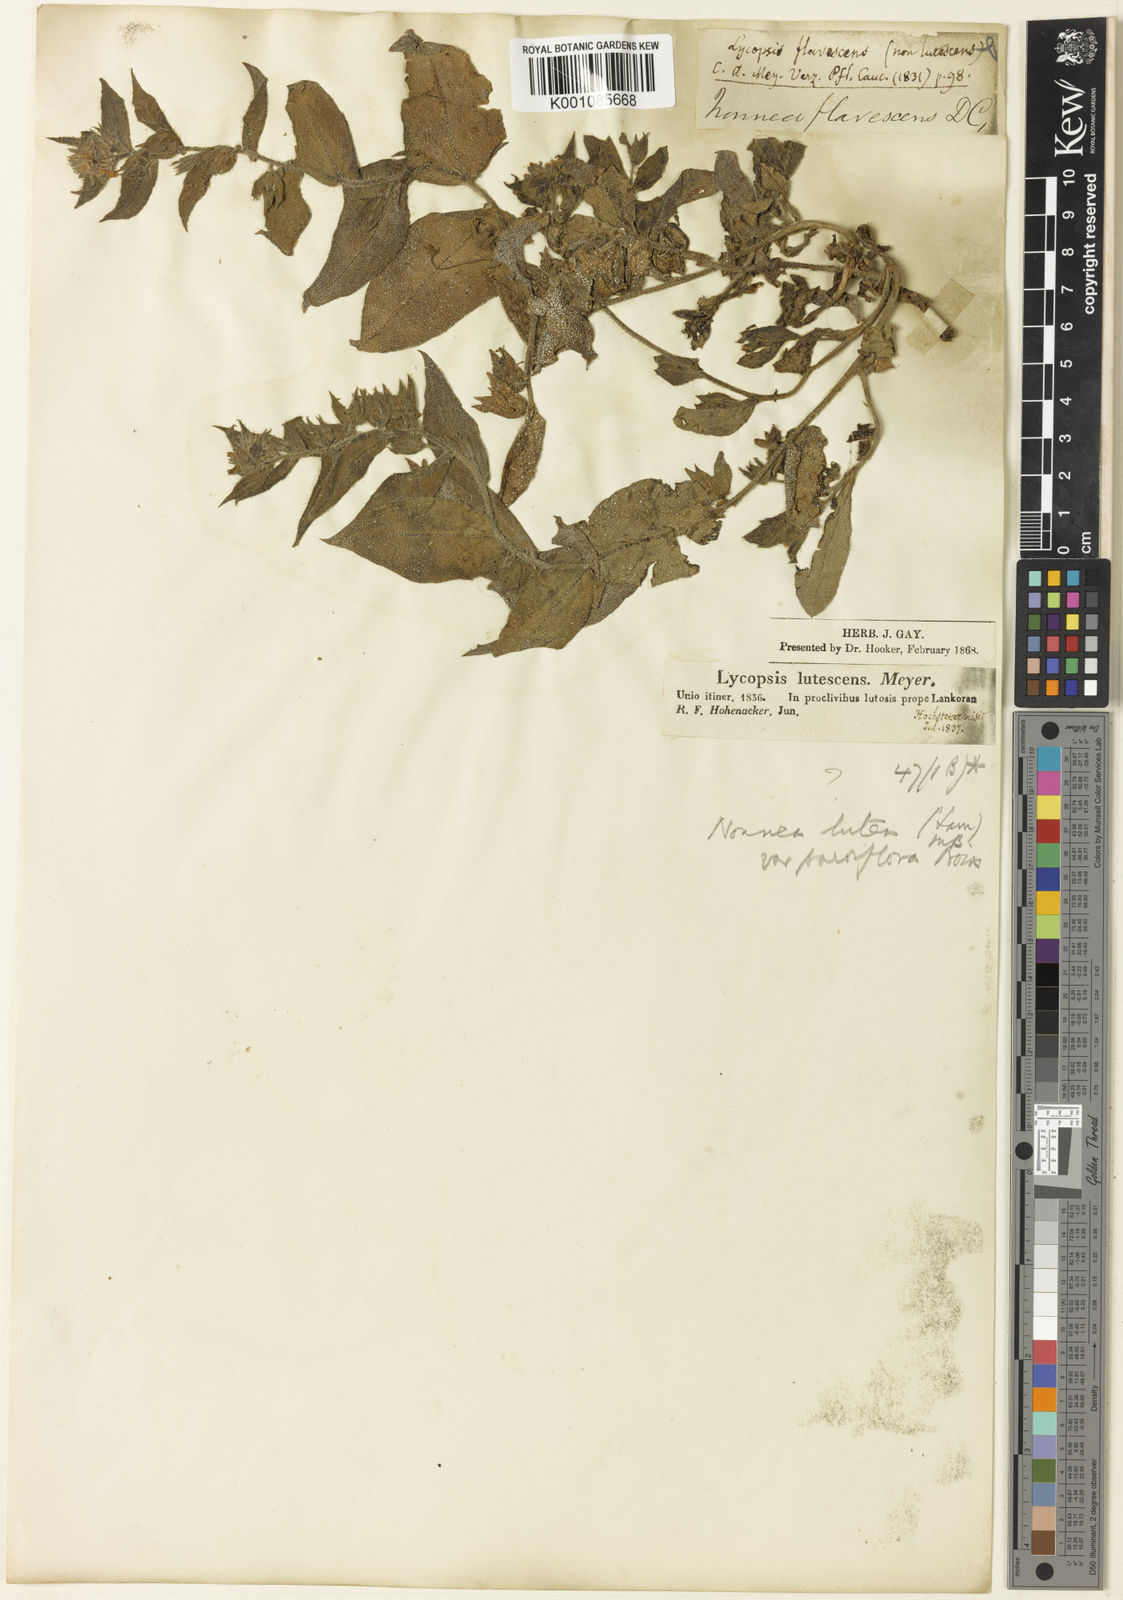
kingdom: Plantae
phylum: Tracheophyta
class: Magnoliopsida
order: Boraginales
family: Boraginaceae
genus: Nonea
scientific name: Nonea lutea
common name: Yellow nonea
